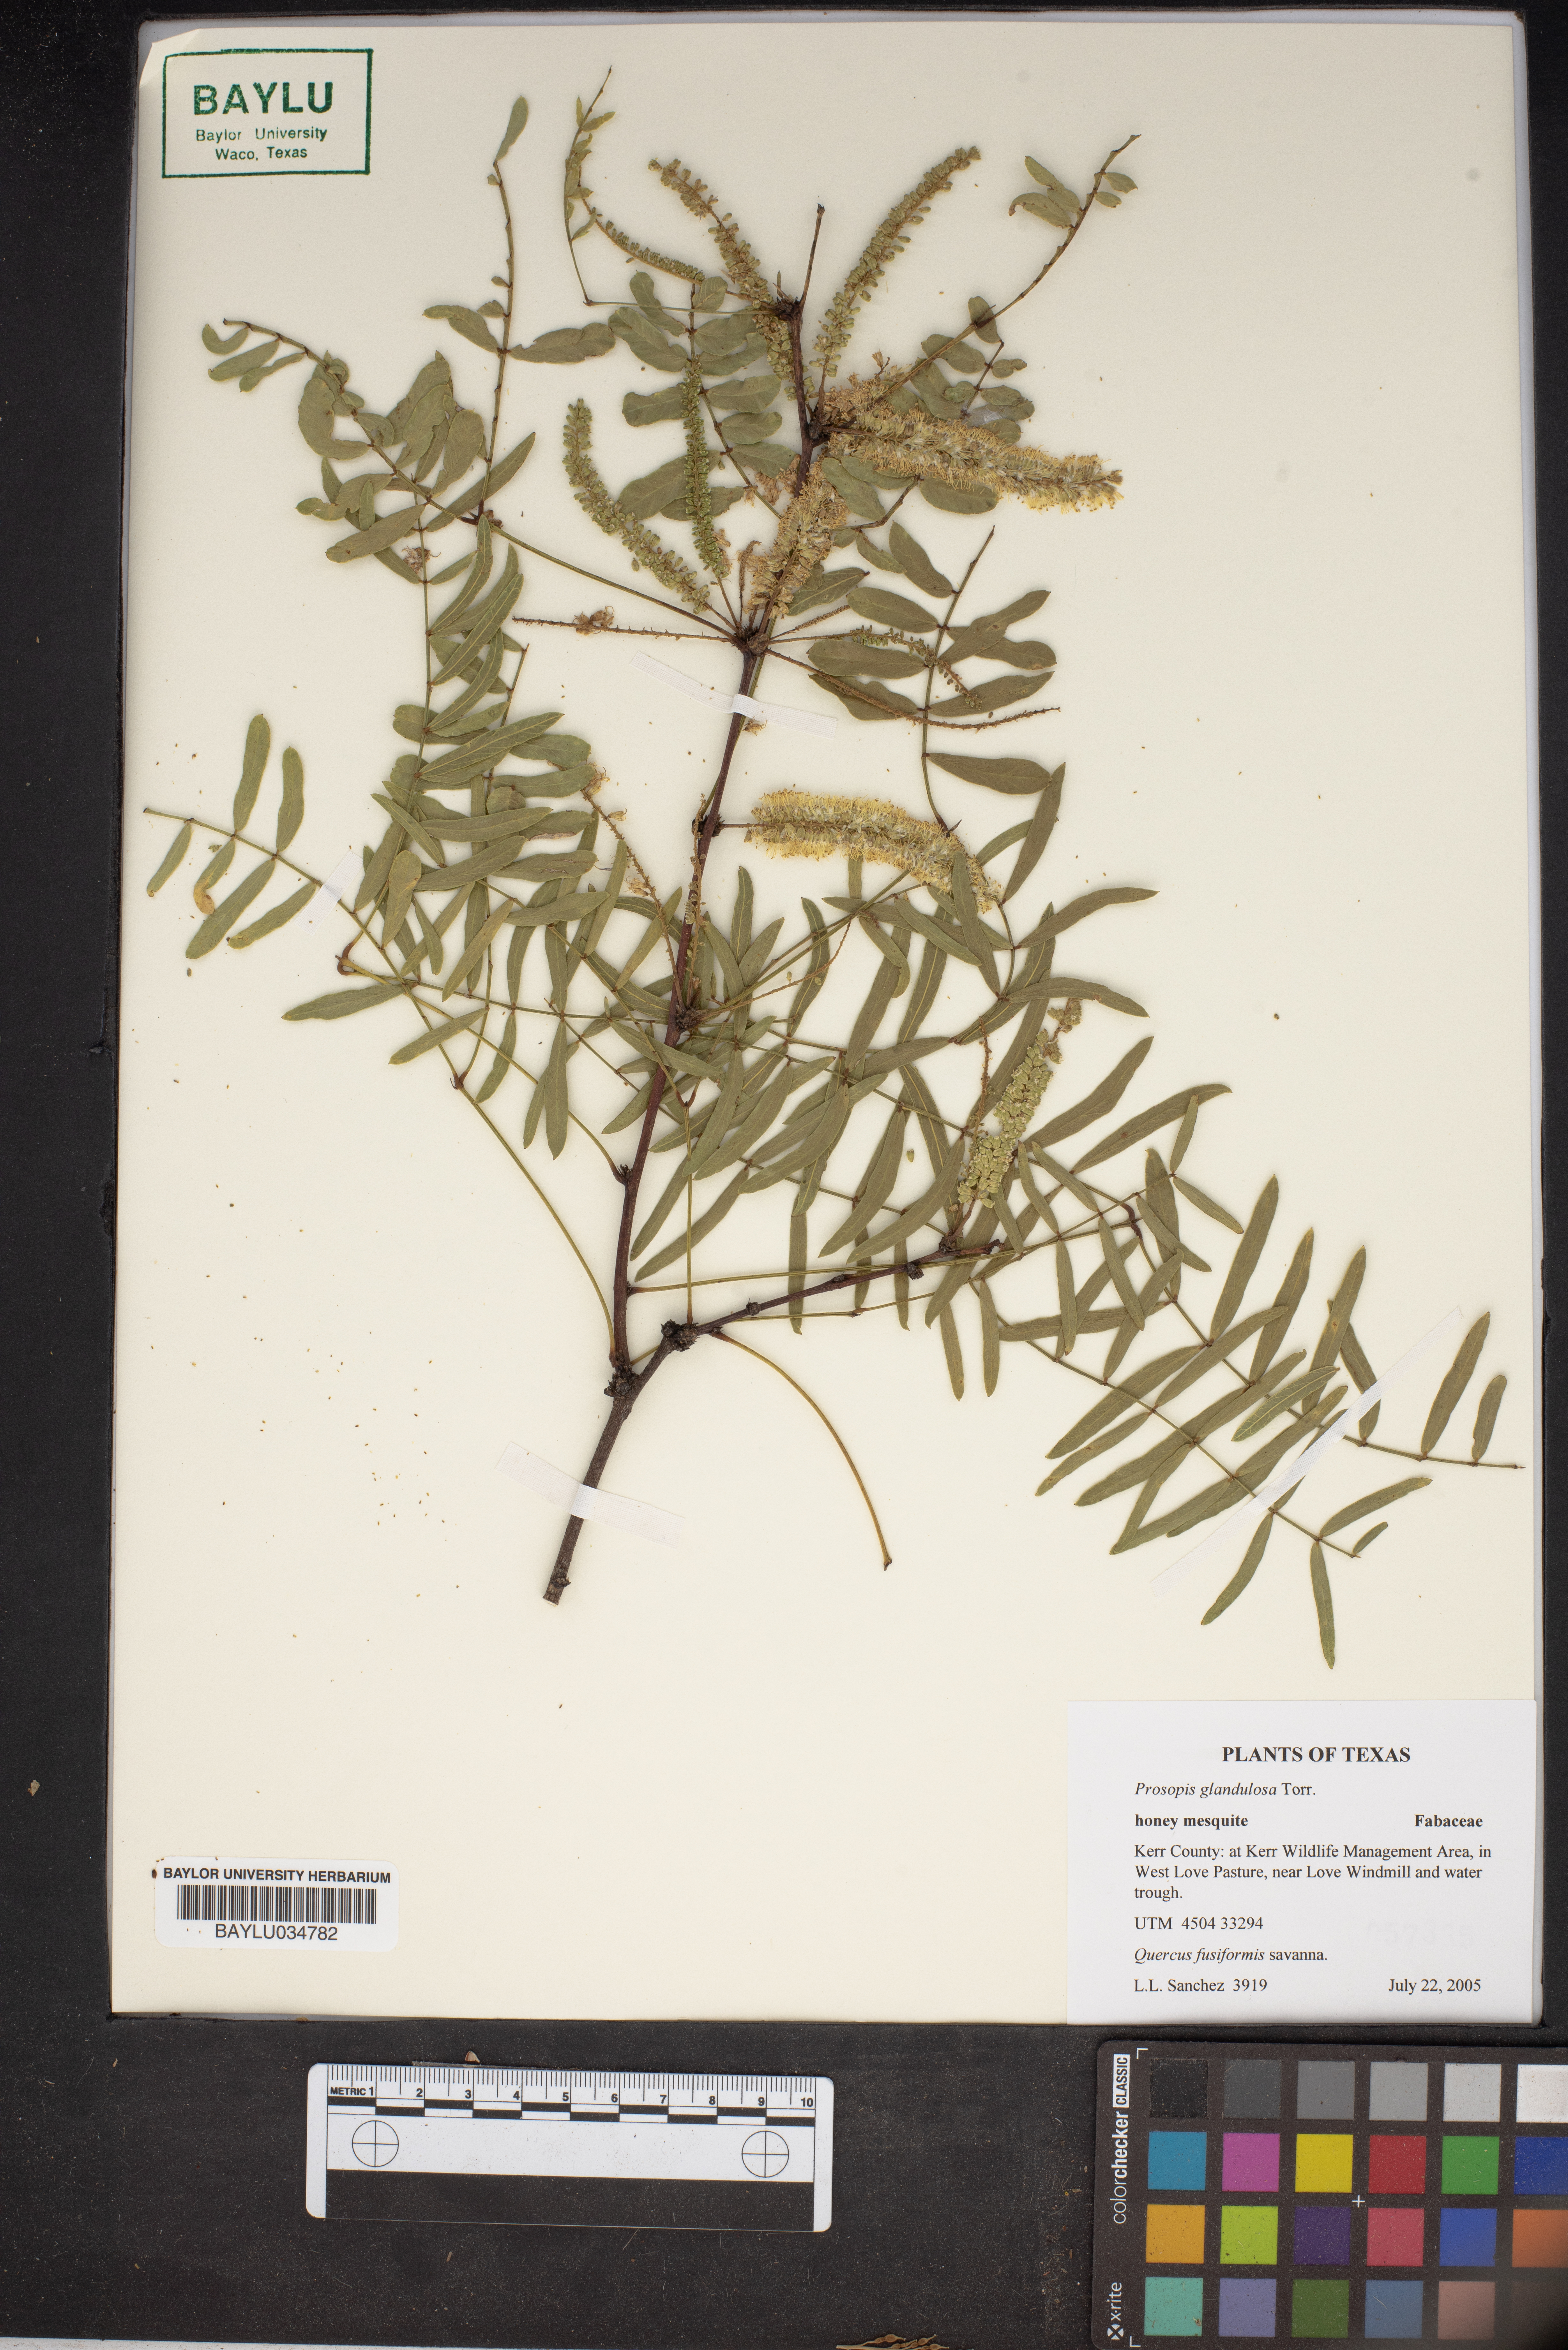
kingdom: Plantae
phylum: Tracheophyta
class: Magnoliopsida
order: Fabales
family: Fabaceae
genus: Prosopis
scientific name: Prosopis glandulosa
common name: Honey mesquite
